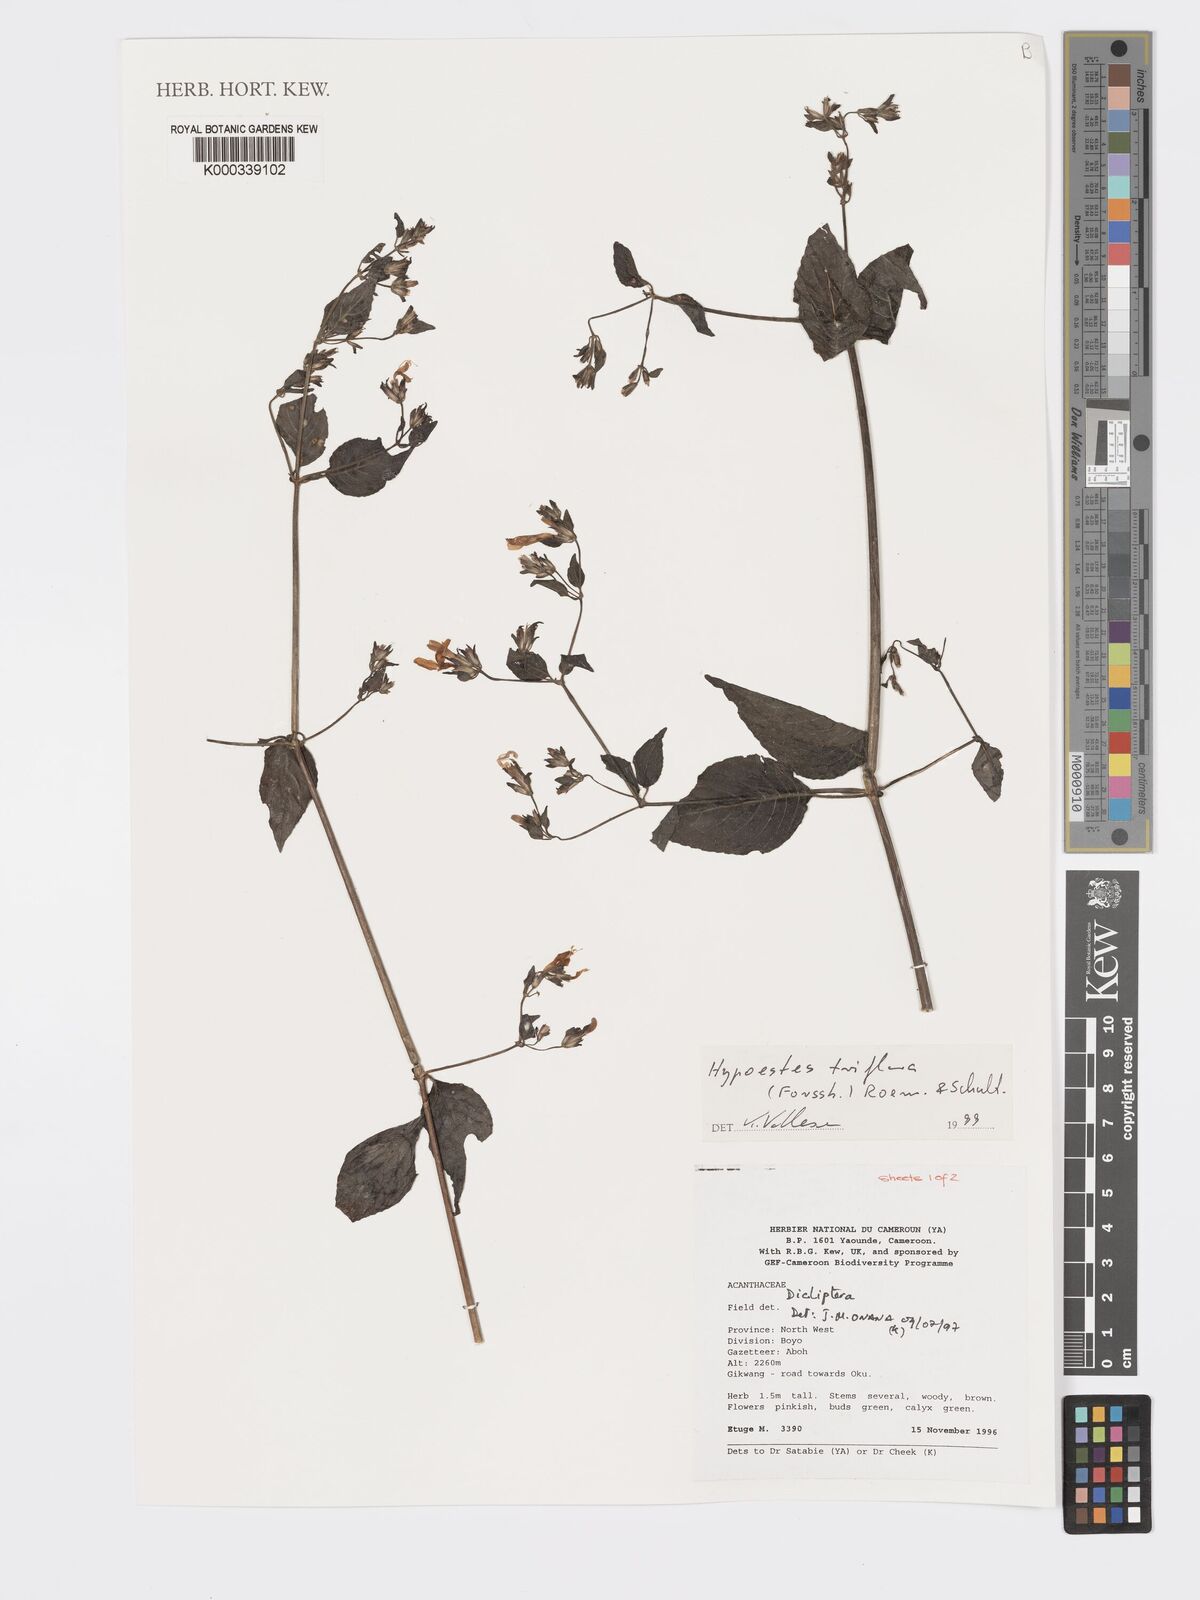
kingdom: Plantae
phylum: Tracheophyta
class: Magnoliopsida
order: Lamiales
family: Acanthaceae
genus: Hypoestes
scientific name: Hypoestes triflora
